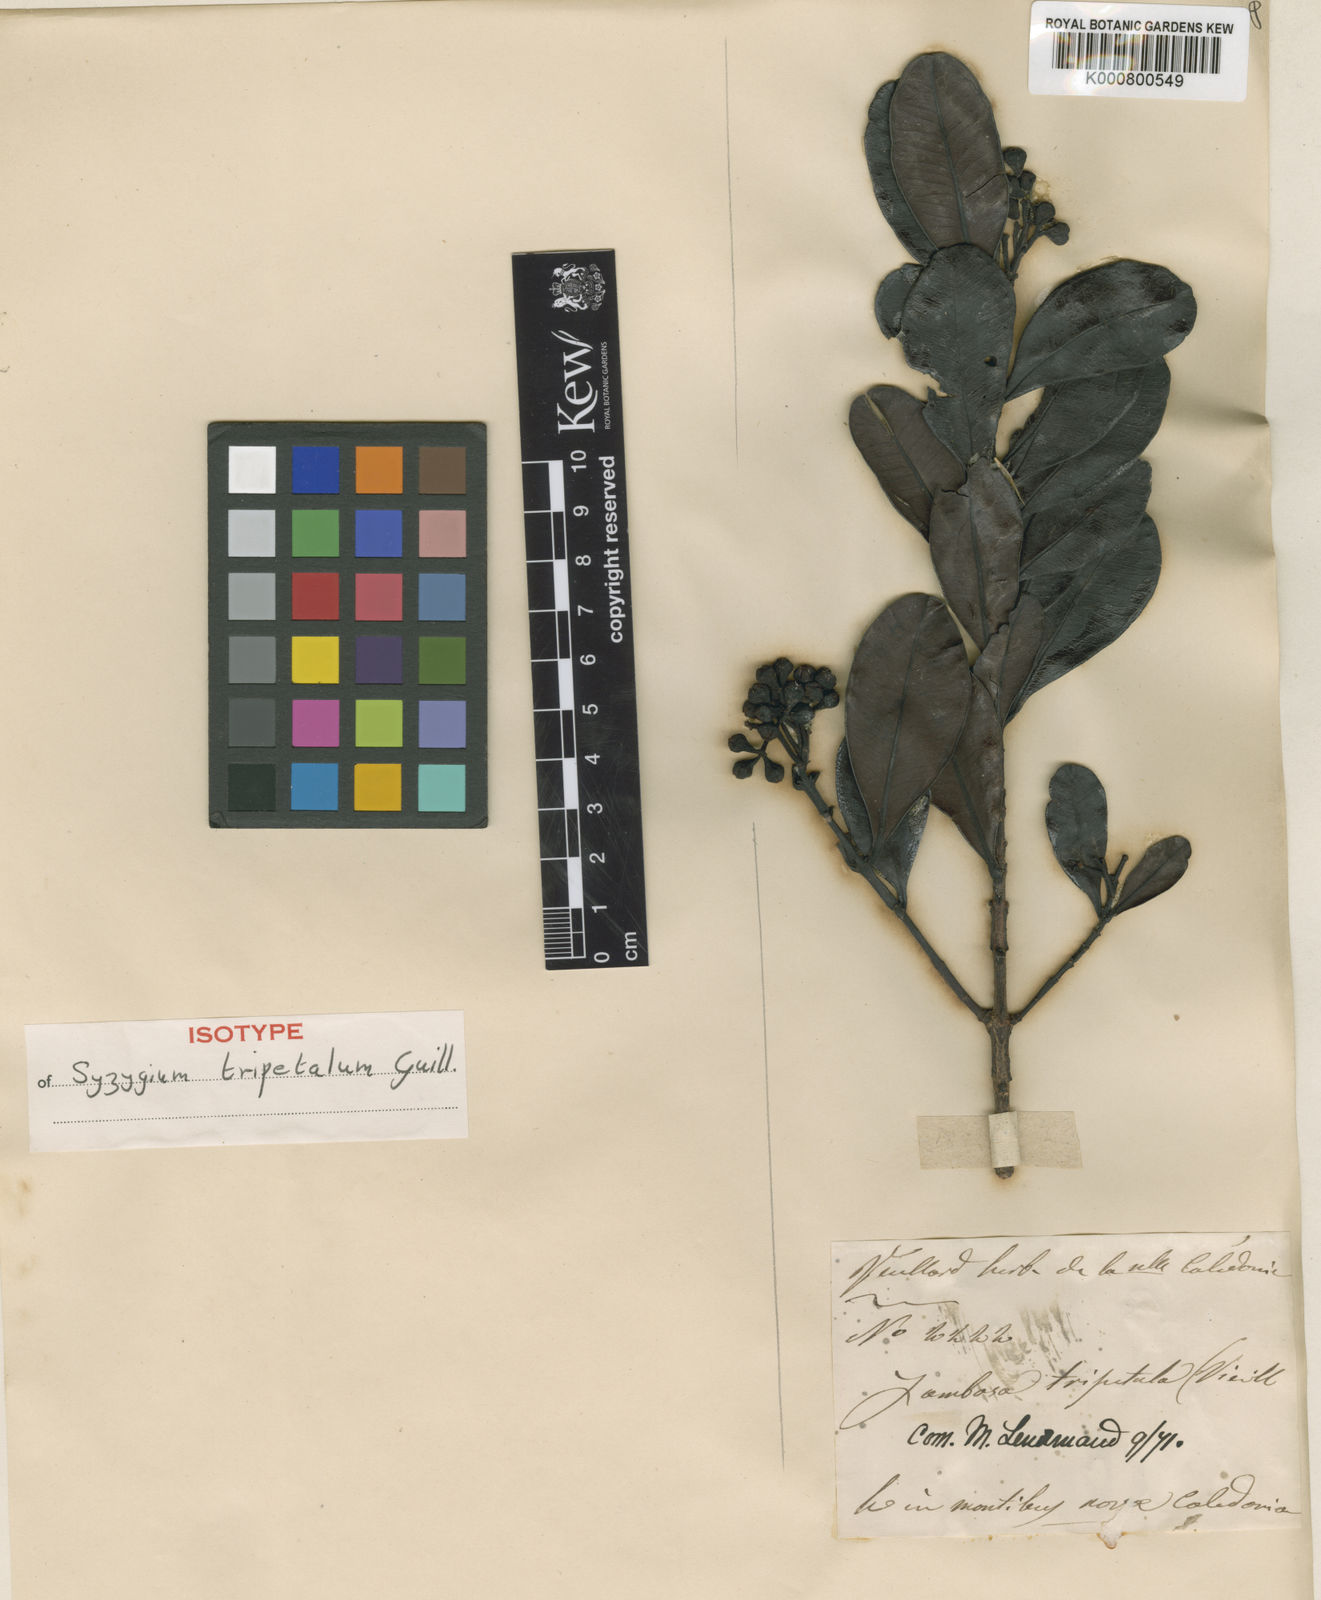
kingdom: Plantae
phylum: Tracheophyta
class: Magnoliopsida
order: Myrtales
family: Myrtaceae
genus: Syzygium
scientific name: Syzygium tripetalum
